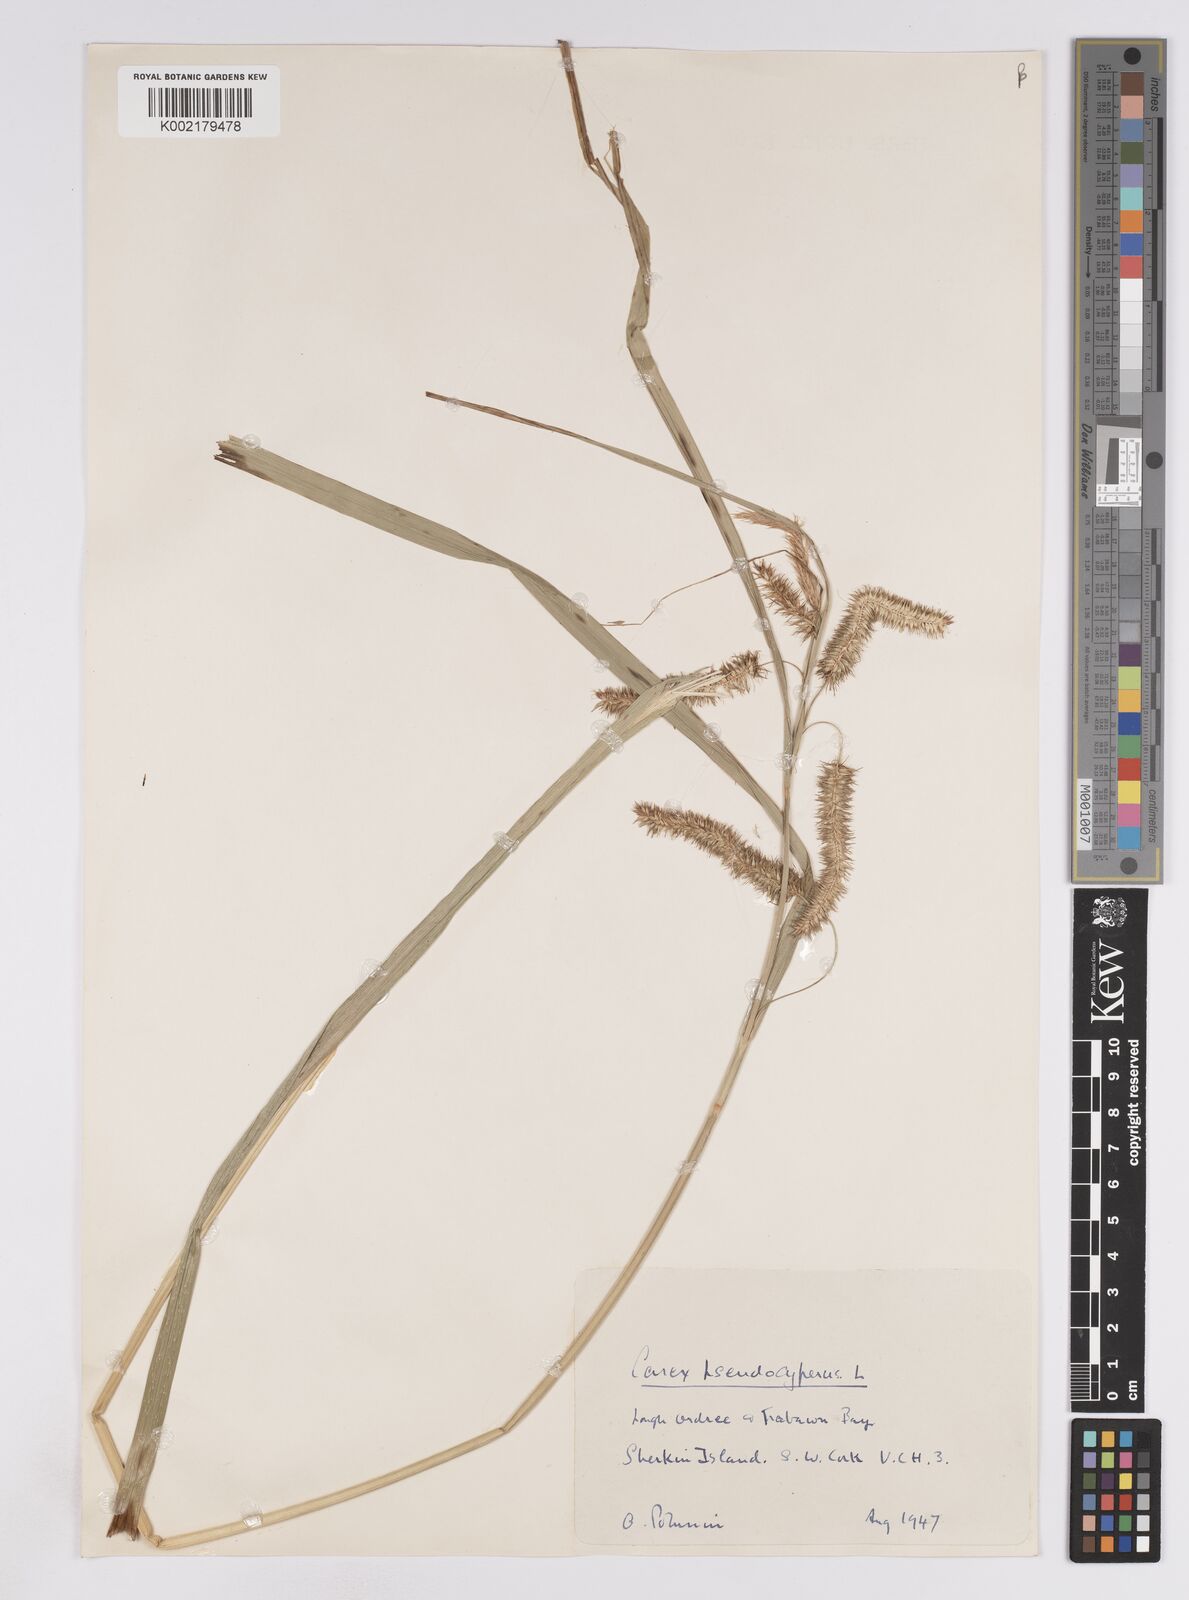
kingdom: Plantae
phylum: Tracheophyta
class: Liliopsida
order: Poales
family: Cyperaceae
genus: Carex
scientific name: Carex pseudocyperus
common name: Cyperus sedge
